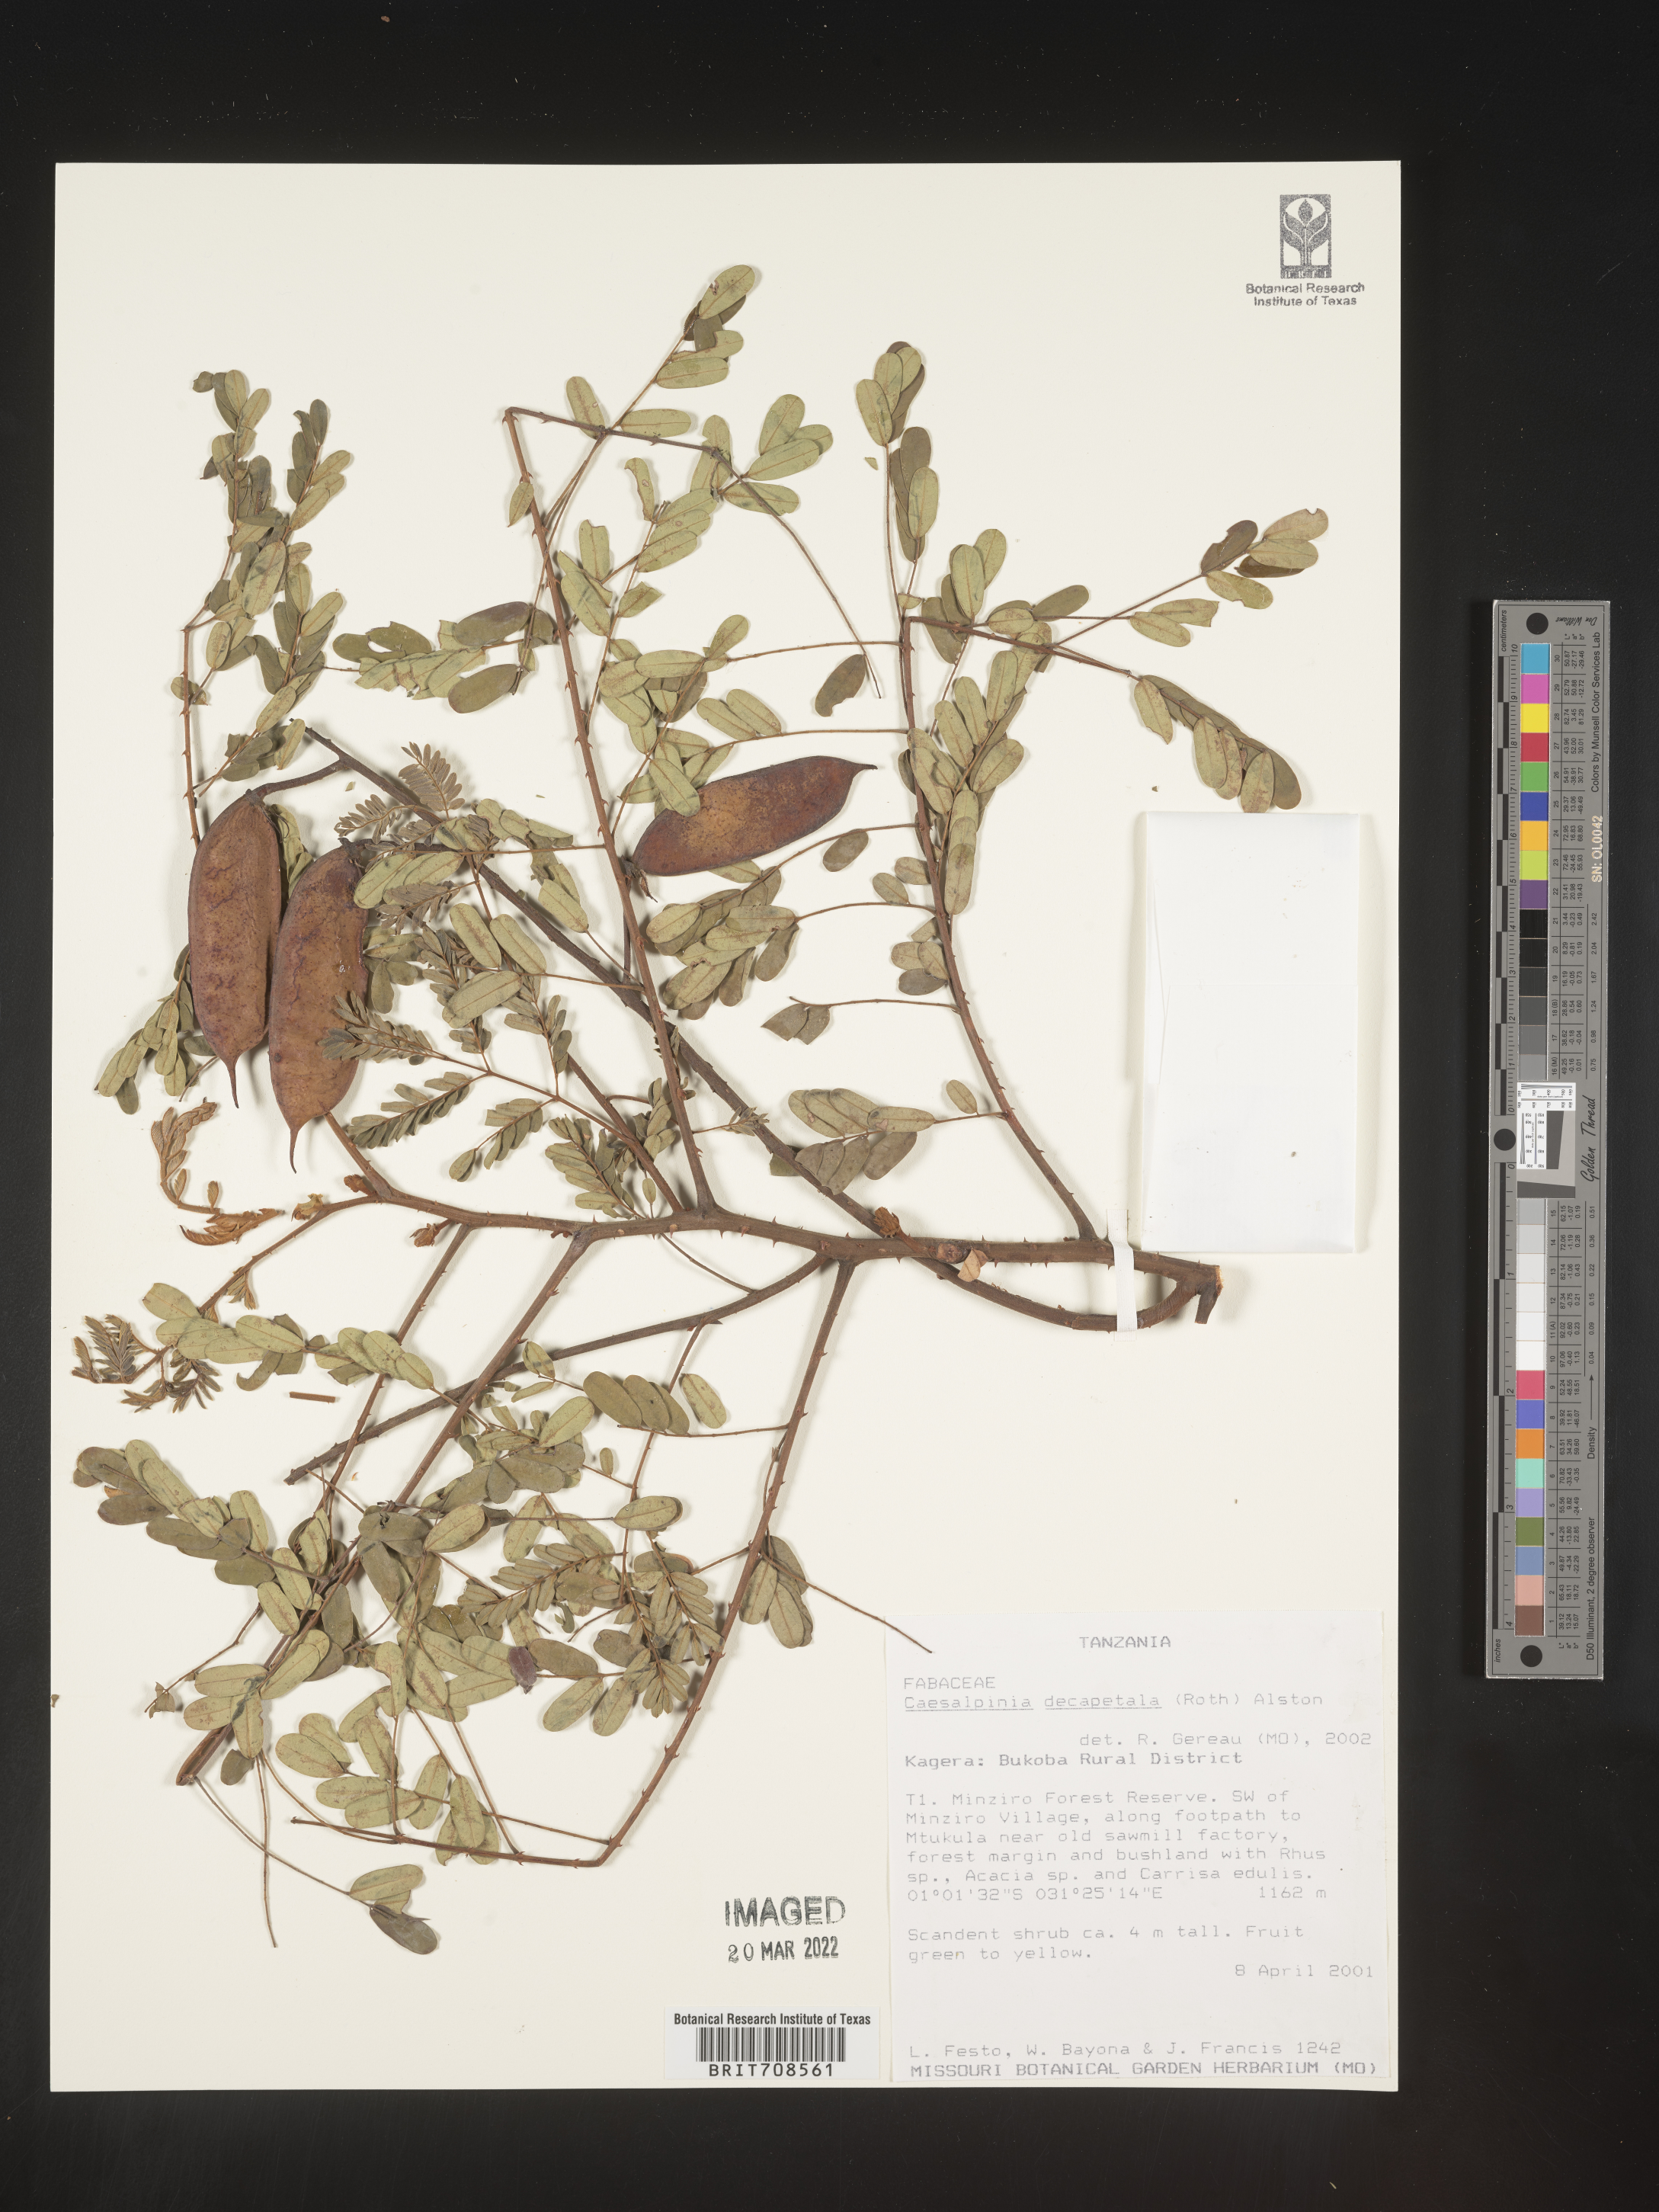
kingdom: Plantae
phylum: Tracheophyta
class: Magnoliopsida
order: Fabales
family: Fabaceae
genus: Caesalpinia
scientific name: Caesalpinia
